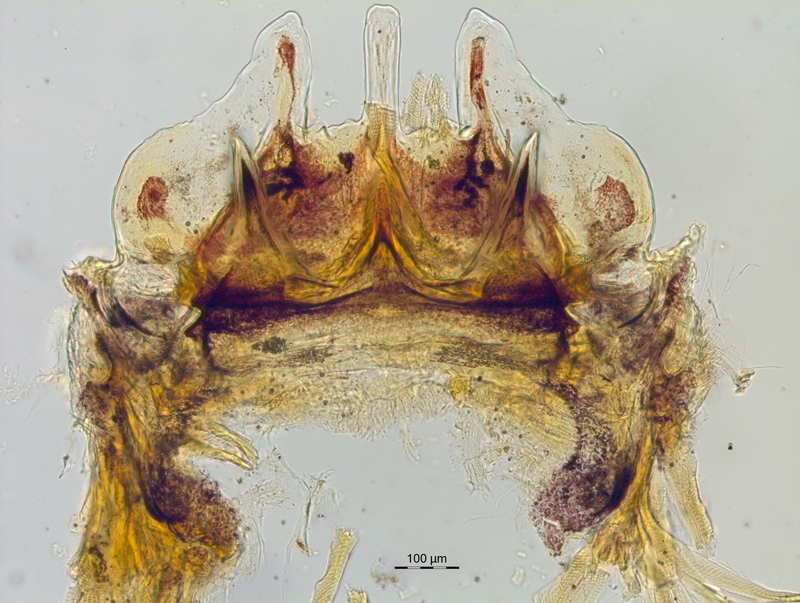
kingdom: Animalia
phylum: Arthropoda
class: Diplopoda
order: Chordeumatida
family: Craspedosomatidae
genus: Craspedosoma
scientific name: Craspedosoma simile
